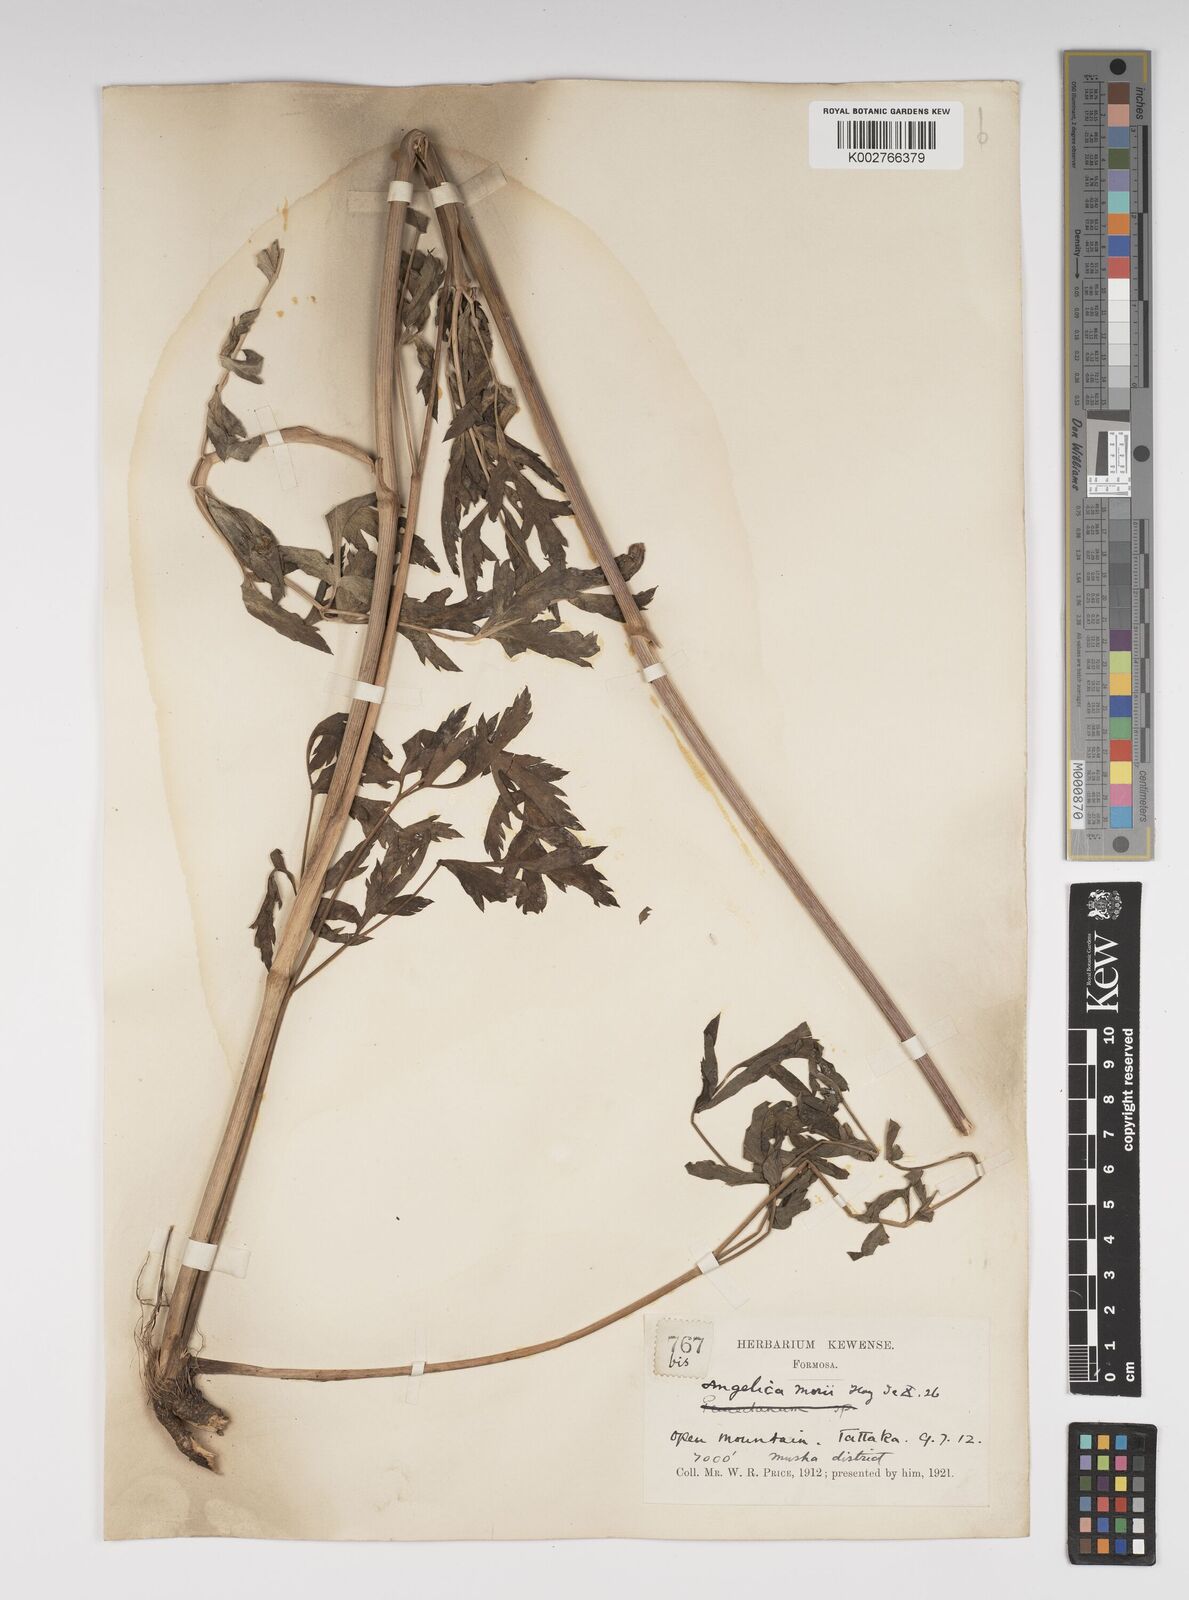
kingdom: Plantae
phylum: Tracheophyta
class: Magnoliopsida
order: Apiales
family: Apiaceae
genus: Angelica
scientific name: Angelica morii
